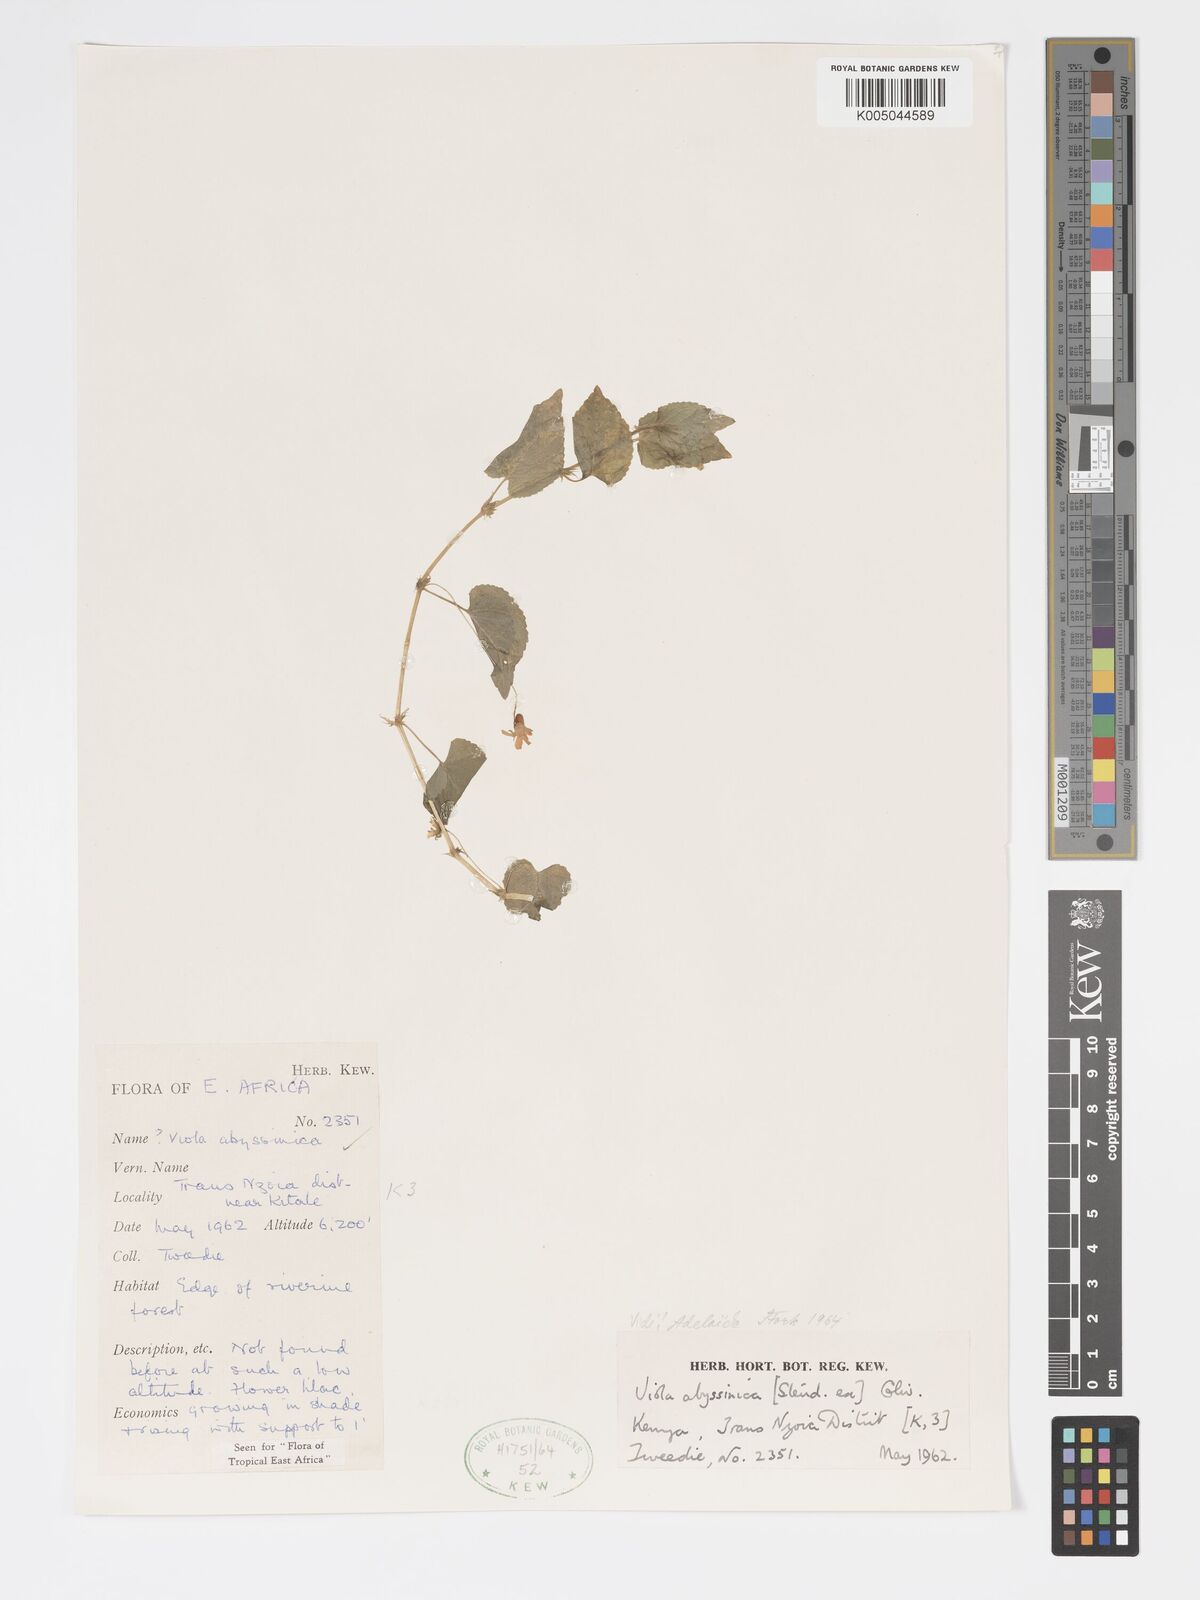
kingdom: Plantae
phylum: Tracheophyta
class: Magnoliopsida
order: Malpighiales
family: Violaceae
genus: Viola
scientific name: Viola abyssinica
